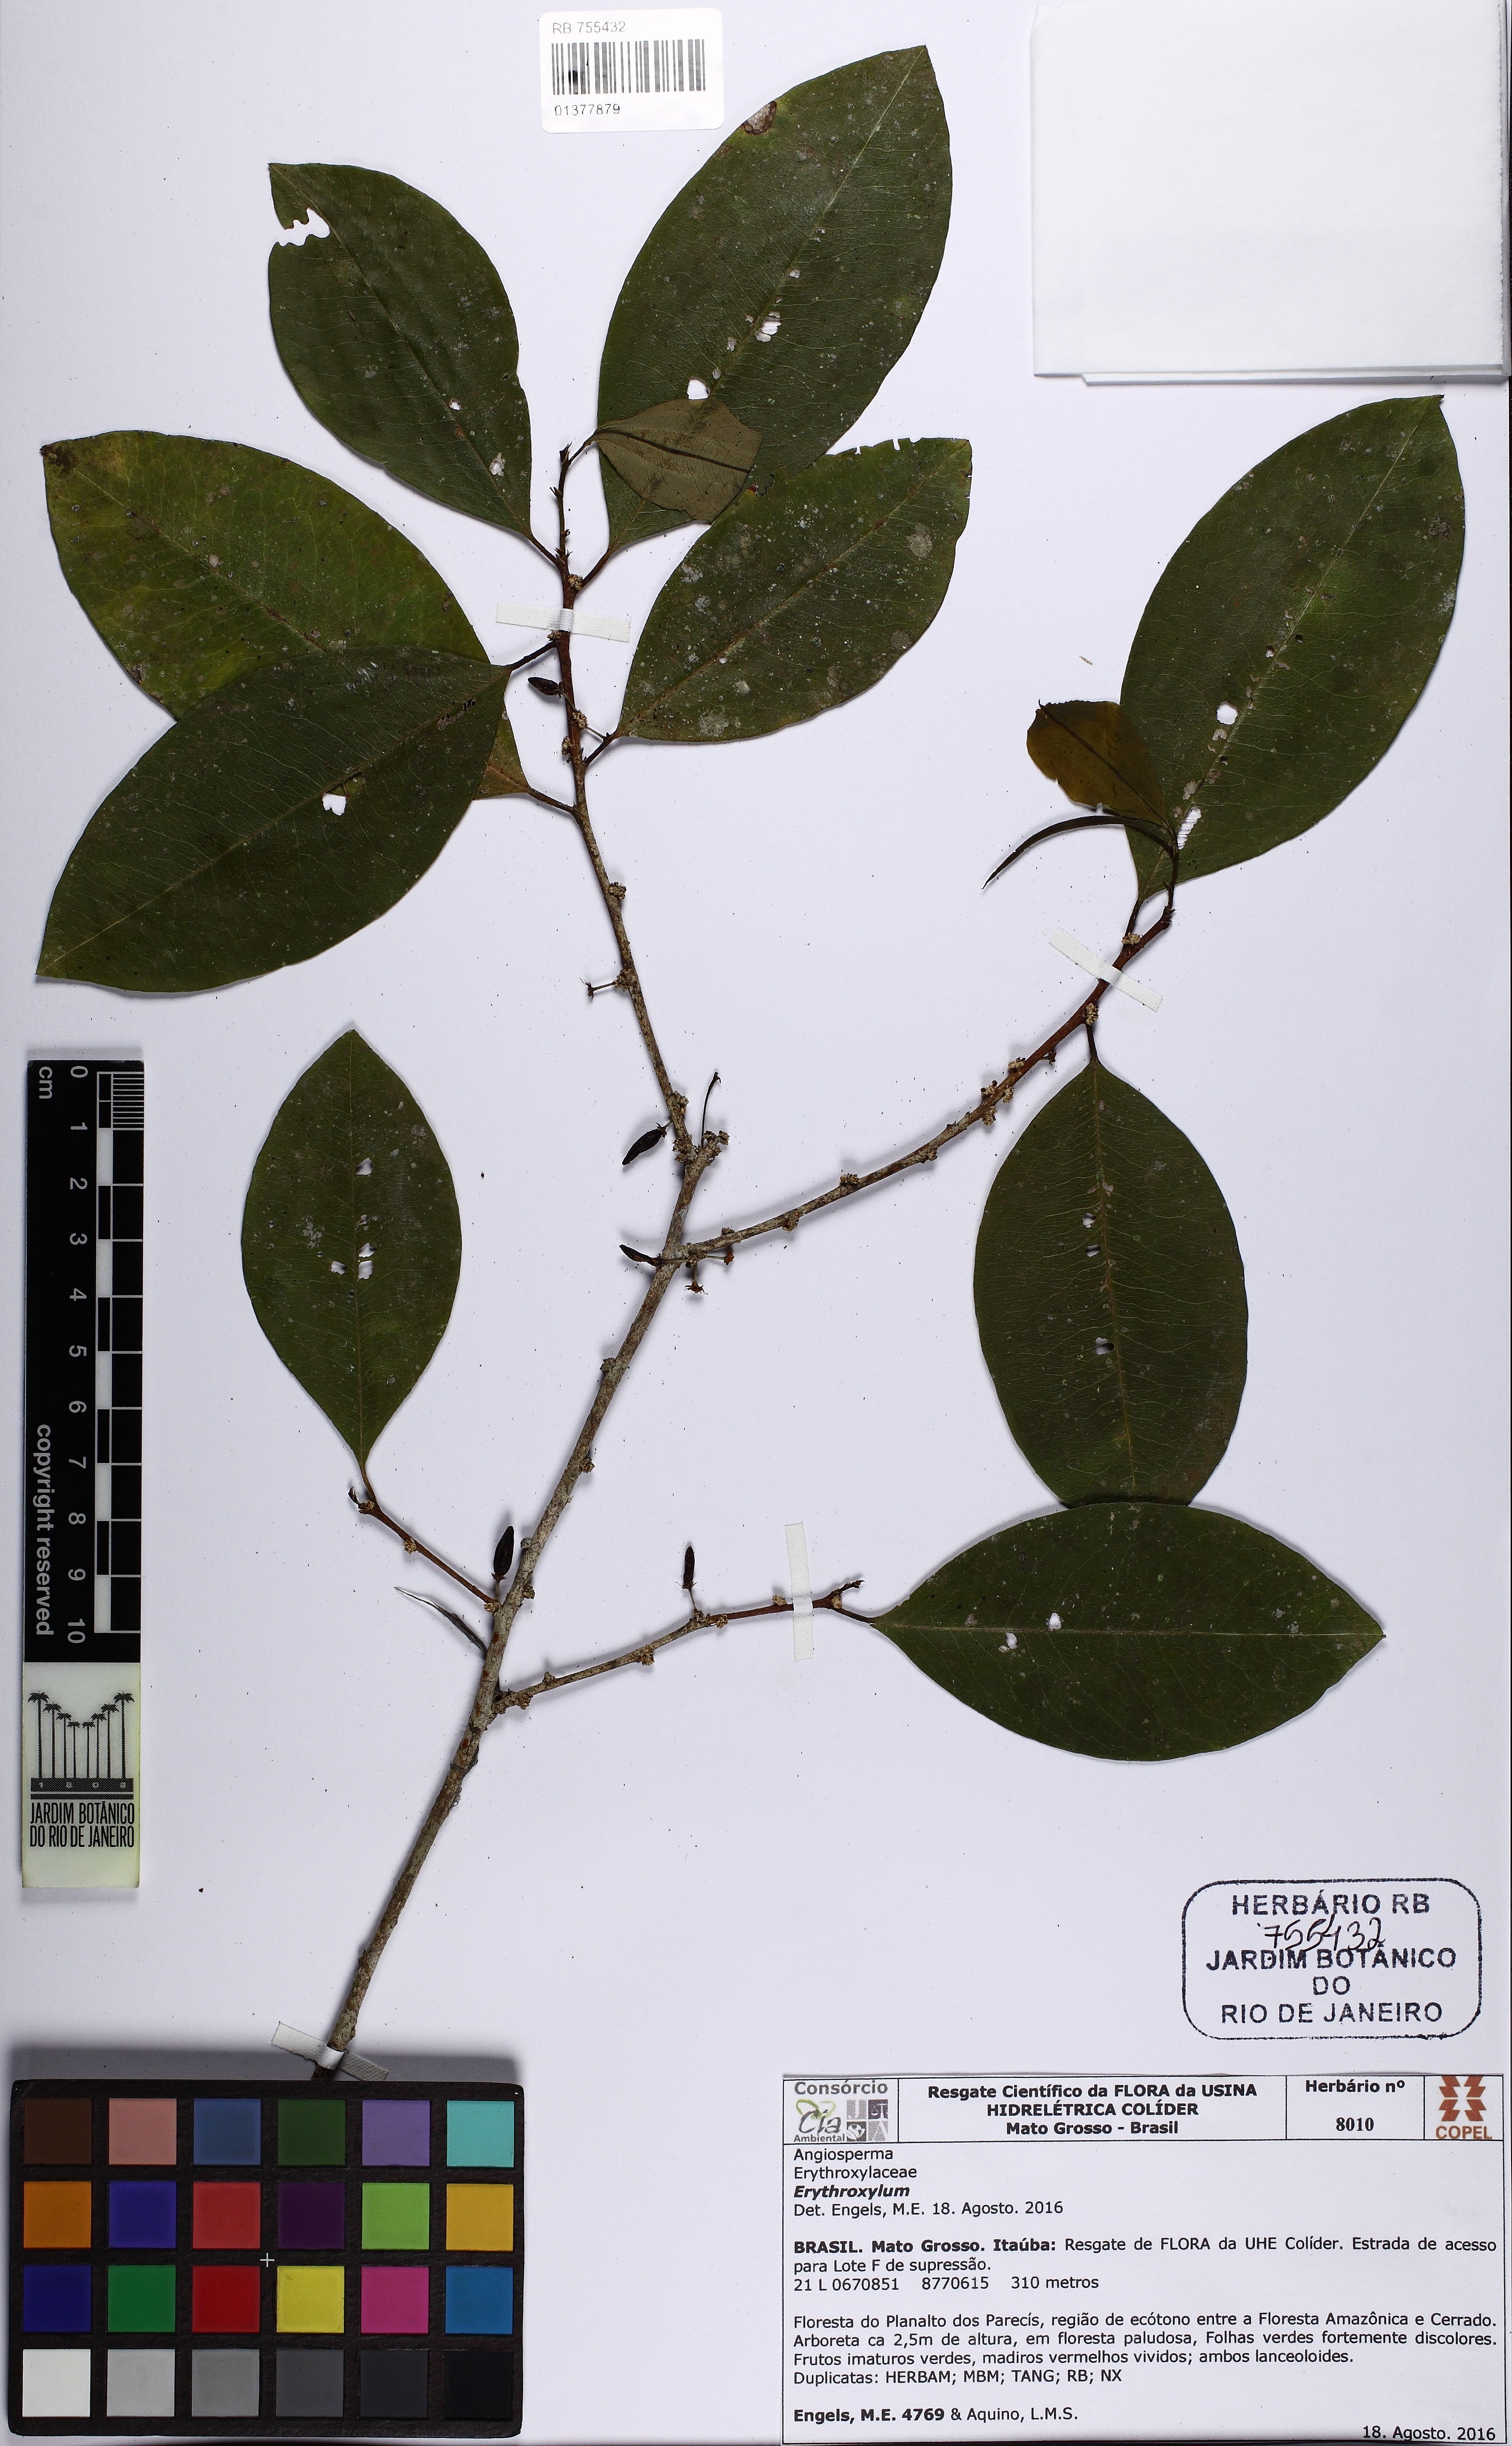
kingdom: Plantae
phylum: Tracheophyta
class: Magnoliopsida
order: Malpighiales
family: Erythroxylaceae
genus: Erythroxylum
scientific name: Erythroxylum
